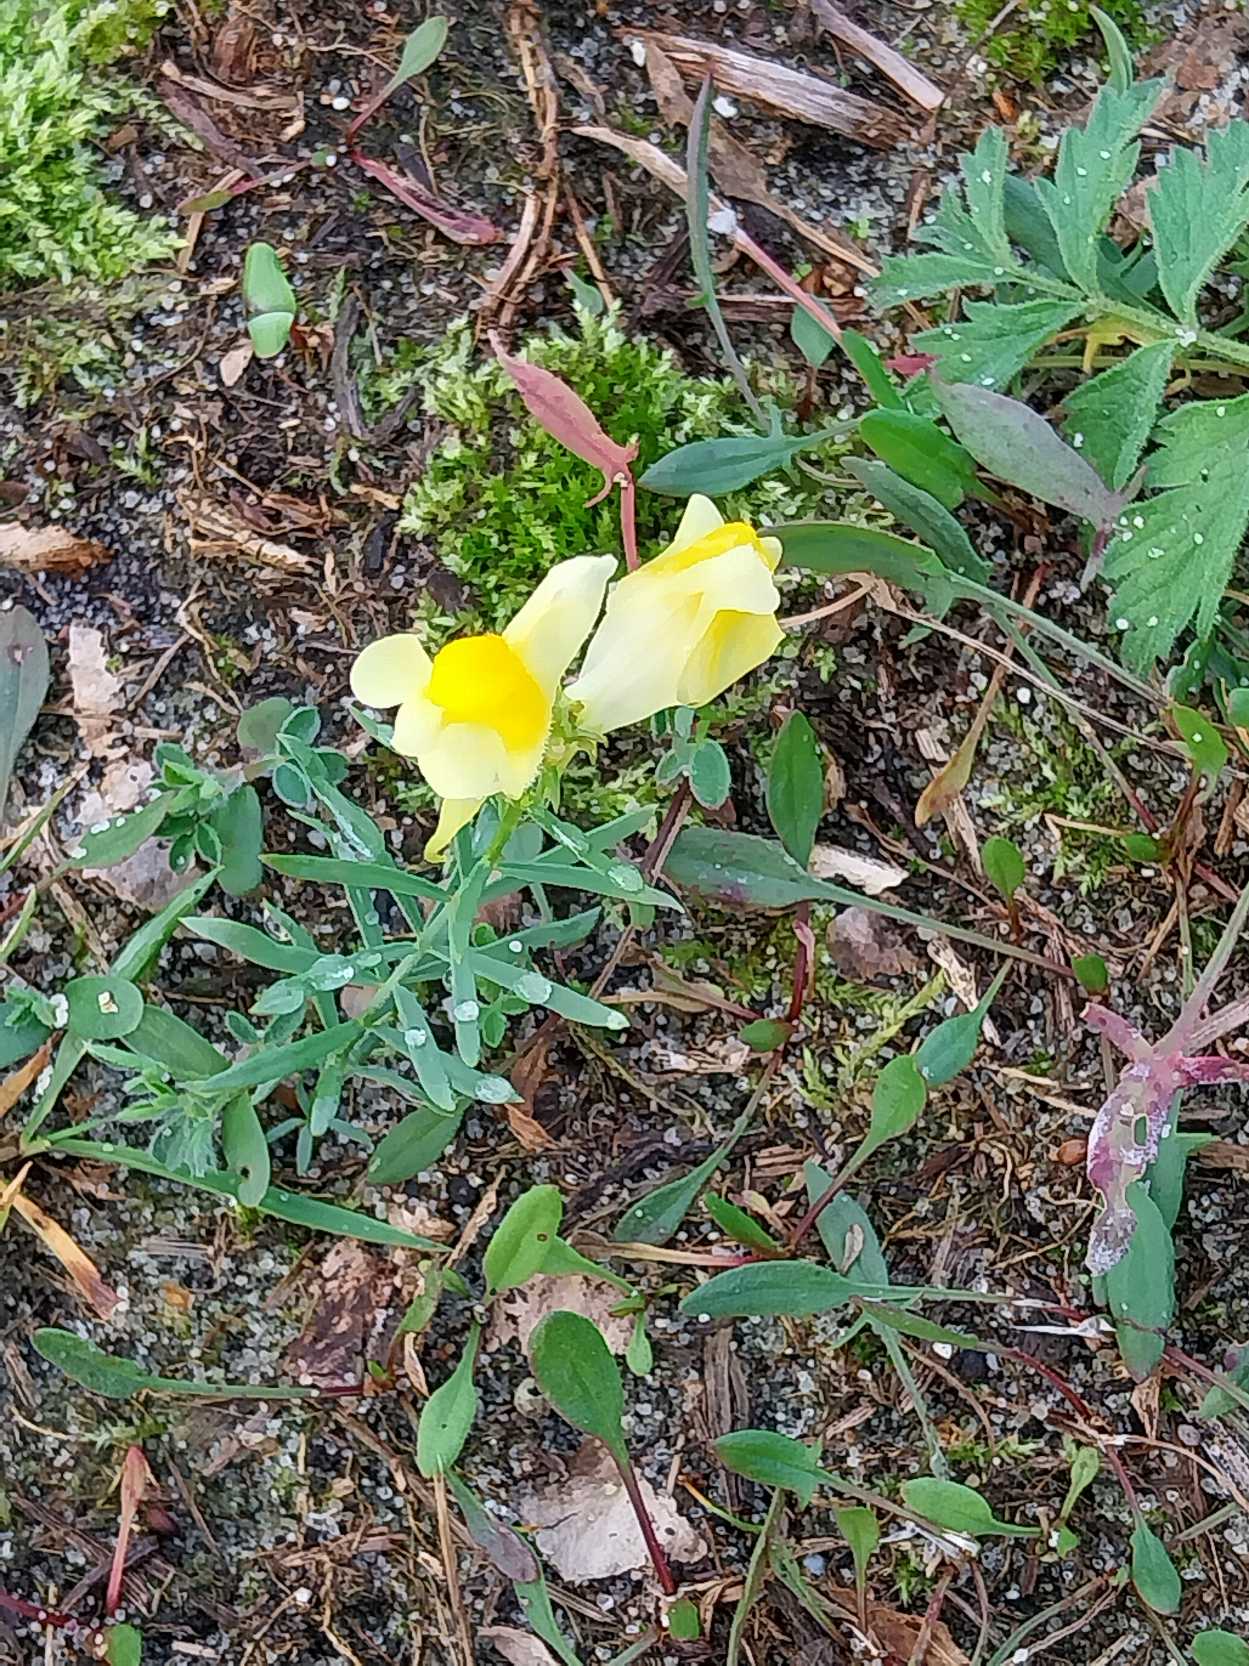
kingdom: Plantae
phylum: Tracheophyta
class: Magnoliopsida
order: Lamiales
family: Plantaginaceae
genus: Linaria
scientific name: Linaria vulgaris
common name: Almindelig torskemund
